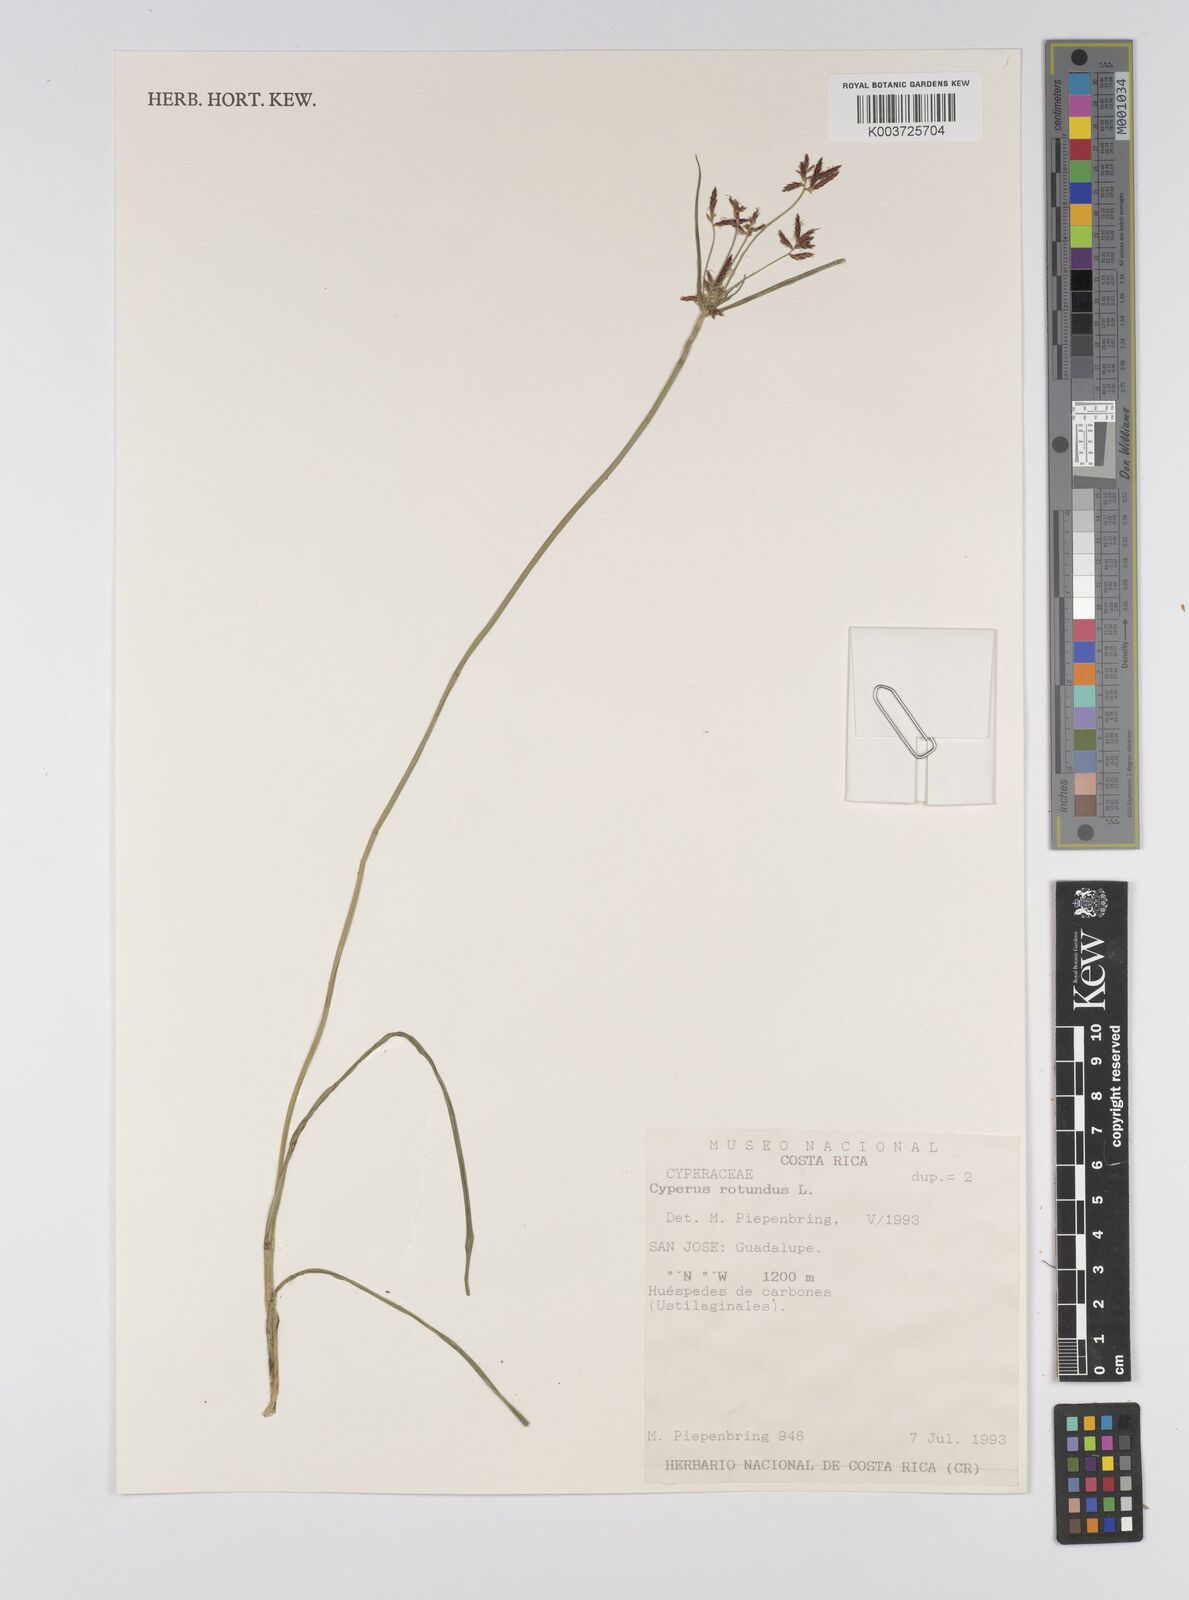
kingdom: Plantae
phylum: Tracheophyta
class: Liliopsida
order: Poales
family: Cyperaceae
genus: Cyperus
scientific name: Cyperus rotundus
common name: Nutgrass
